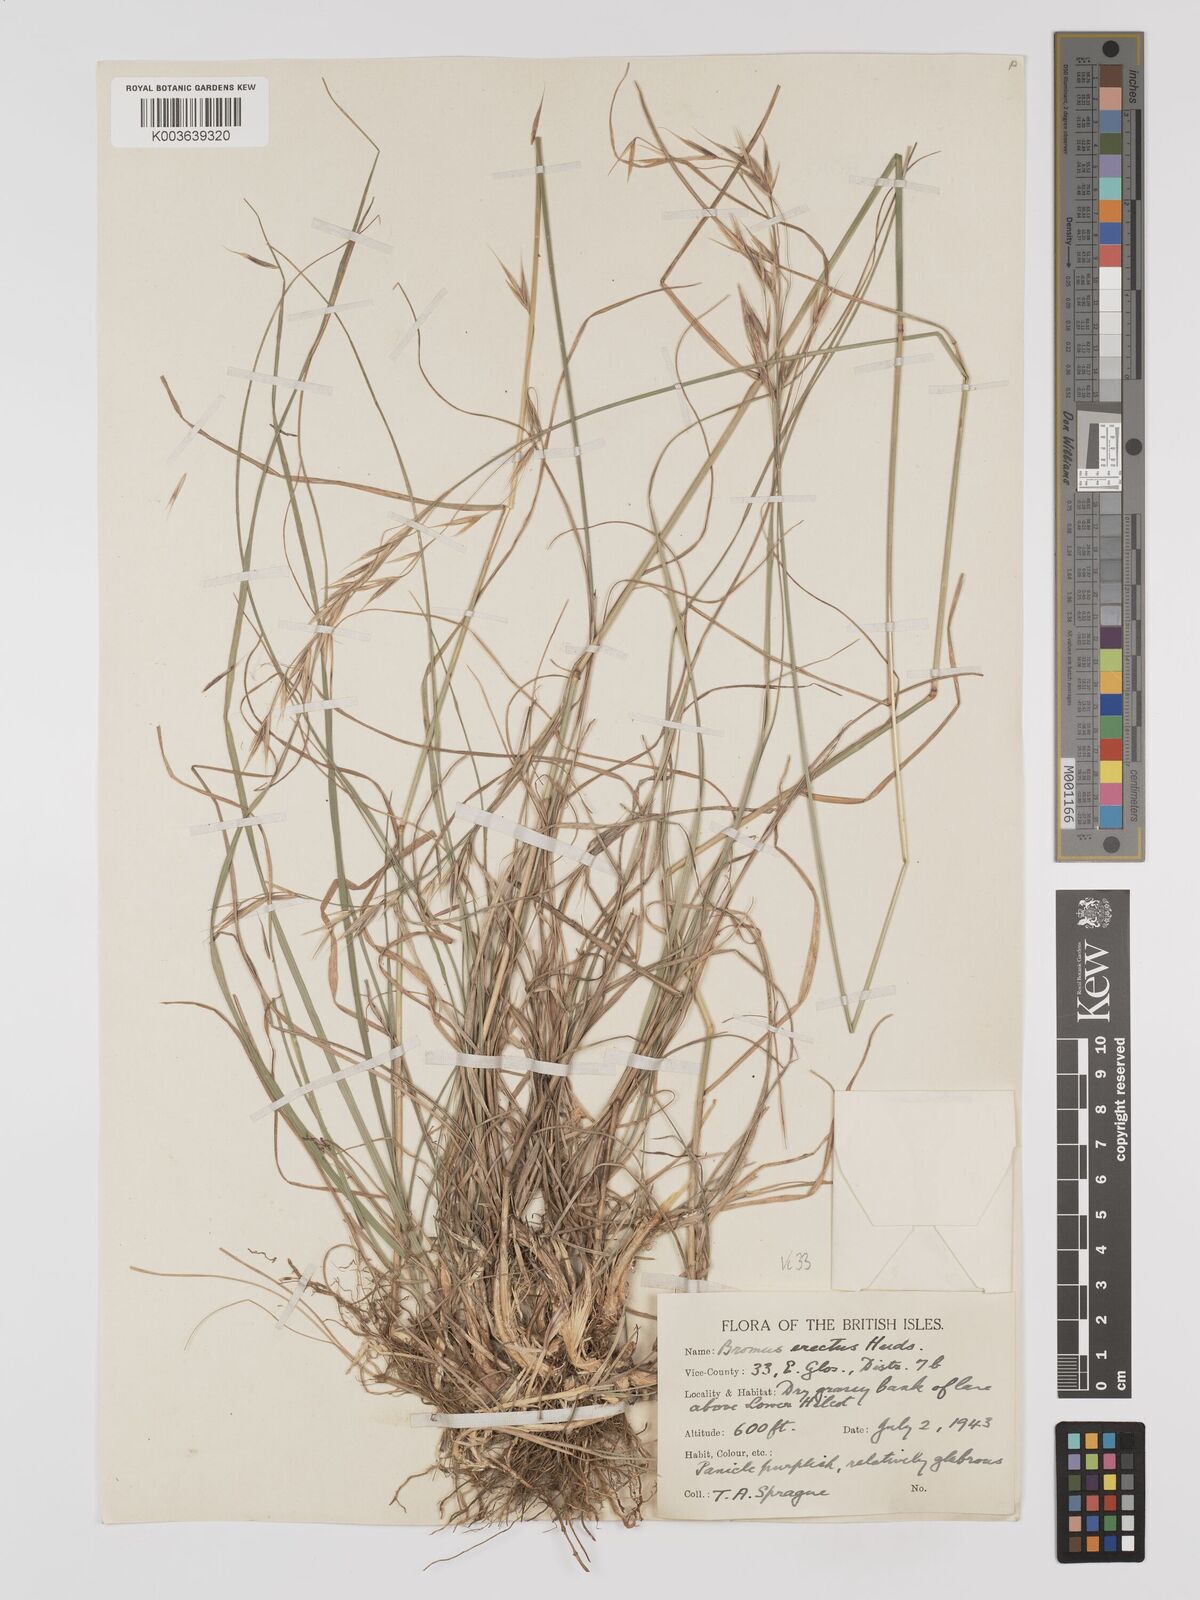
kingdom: Plantae
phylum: Tracheophyta
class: Liliopsida
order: Poales
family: Poaceae
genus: Bromus
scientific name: Bromus erectus
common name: Erect brome
